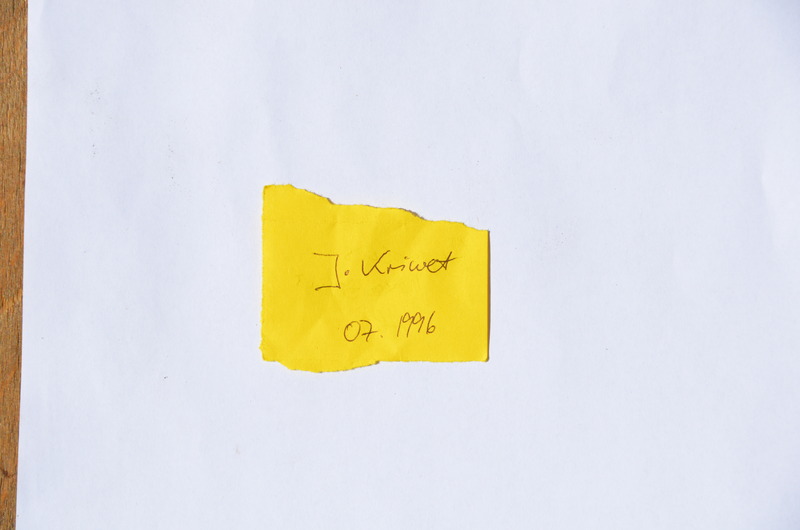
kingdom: Animalia
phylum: Chordata
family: Gyrodontidae
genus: Gyrodus
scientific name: Gyrodus hexagonus
